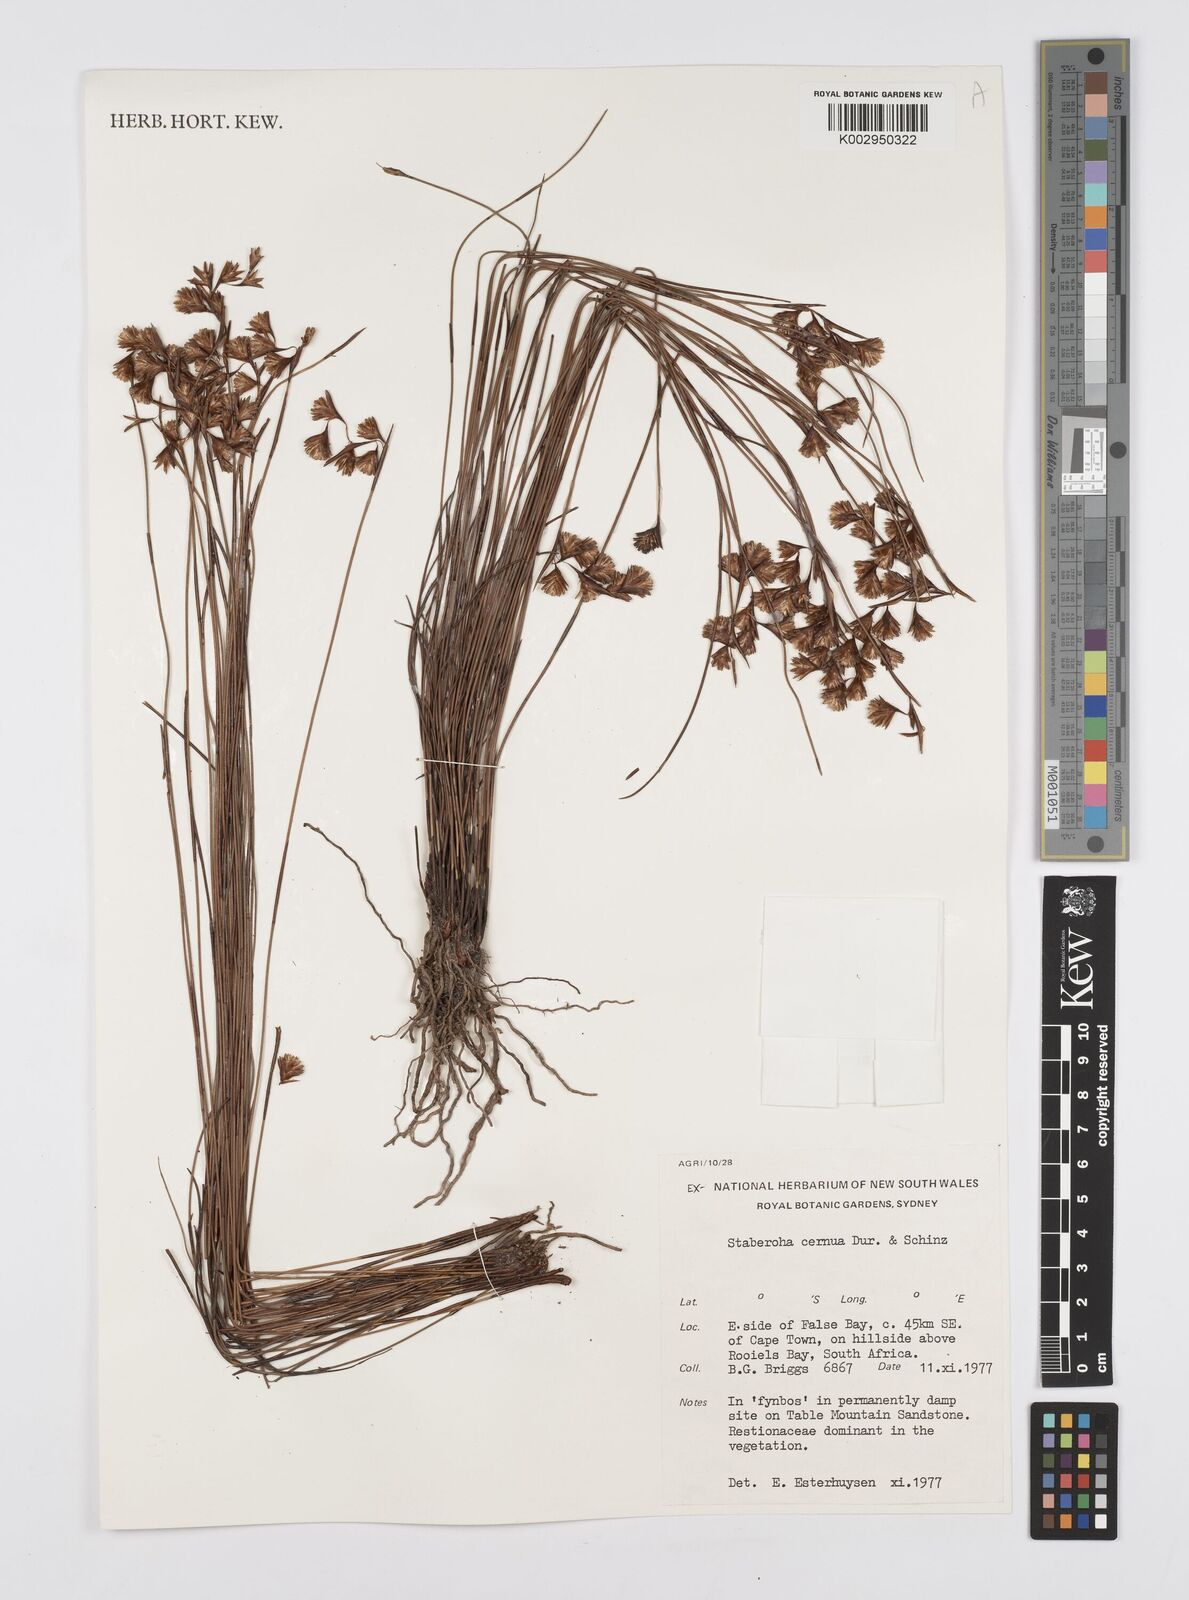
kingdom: Plantae
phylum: Tracheophyta
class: Liliopsida
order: Poales
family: Restionaceae
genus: Staberoha
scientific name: Staberoha cernua
